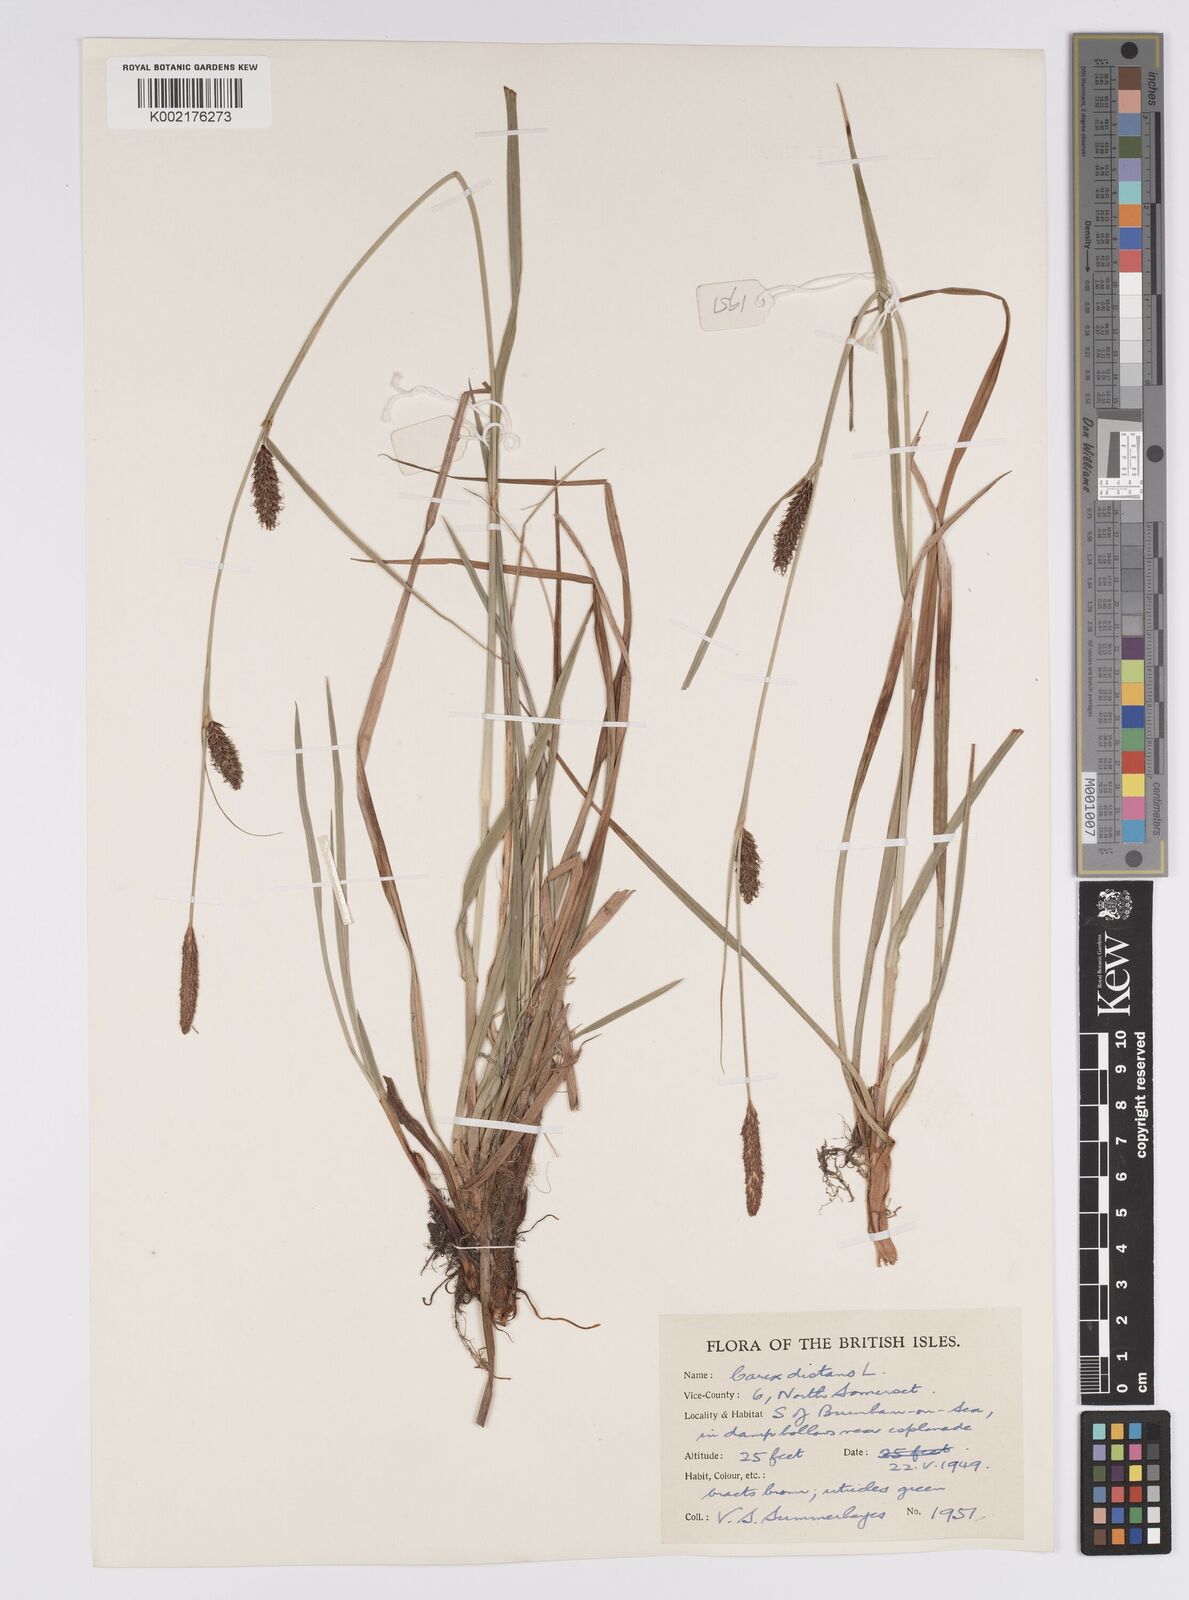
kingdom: Plantae
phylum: Tracheophyta
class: Liliopsida
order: Poales
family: Cyperaceae
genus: Carex
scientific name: Carex distans
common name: Distant sedge
